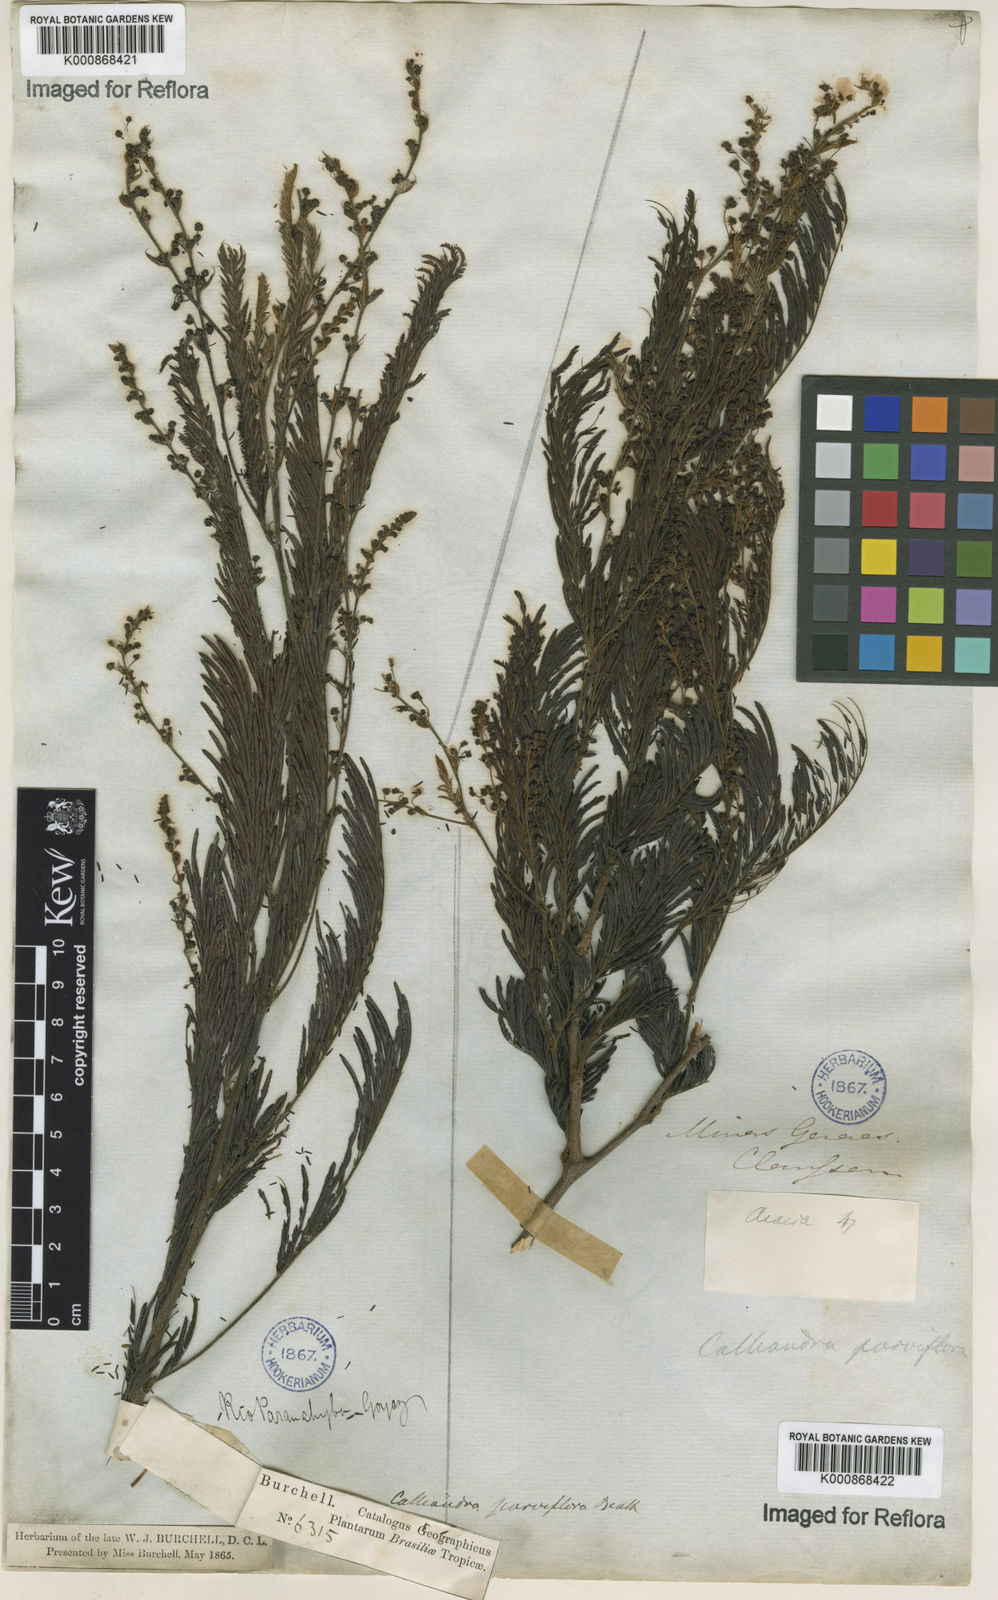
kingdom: Plantae
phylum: Tracheophyta
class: Magnoliopsida
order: Fabales
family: Fabaceae
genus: Calliandra
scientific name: Calliandra parviflora
